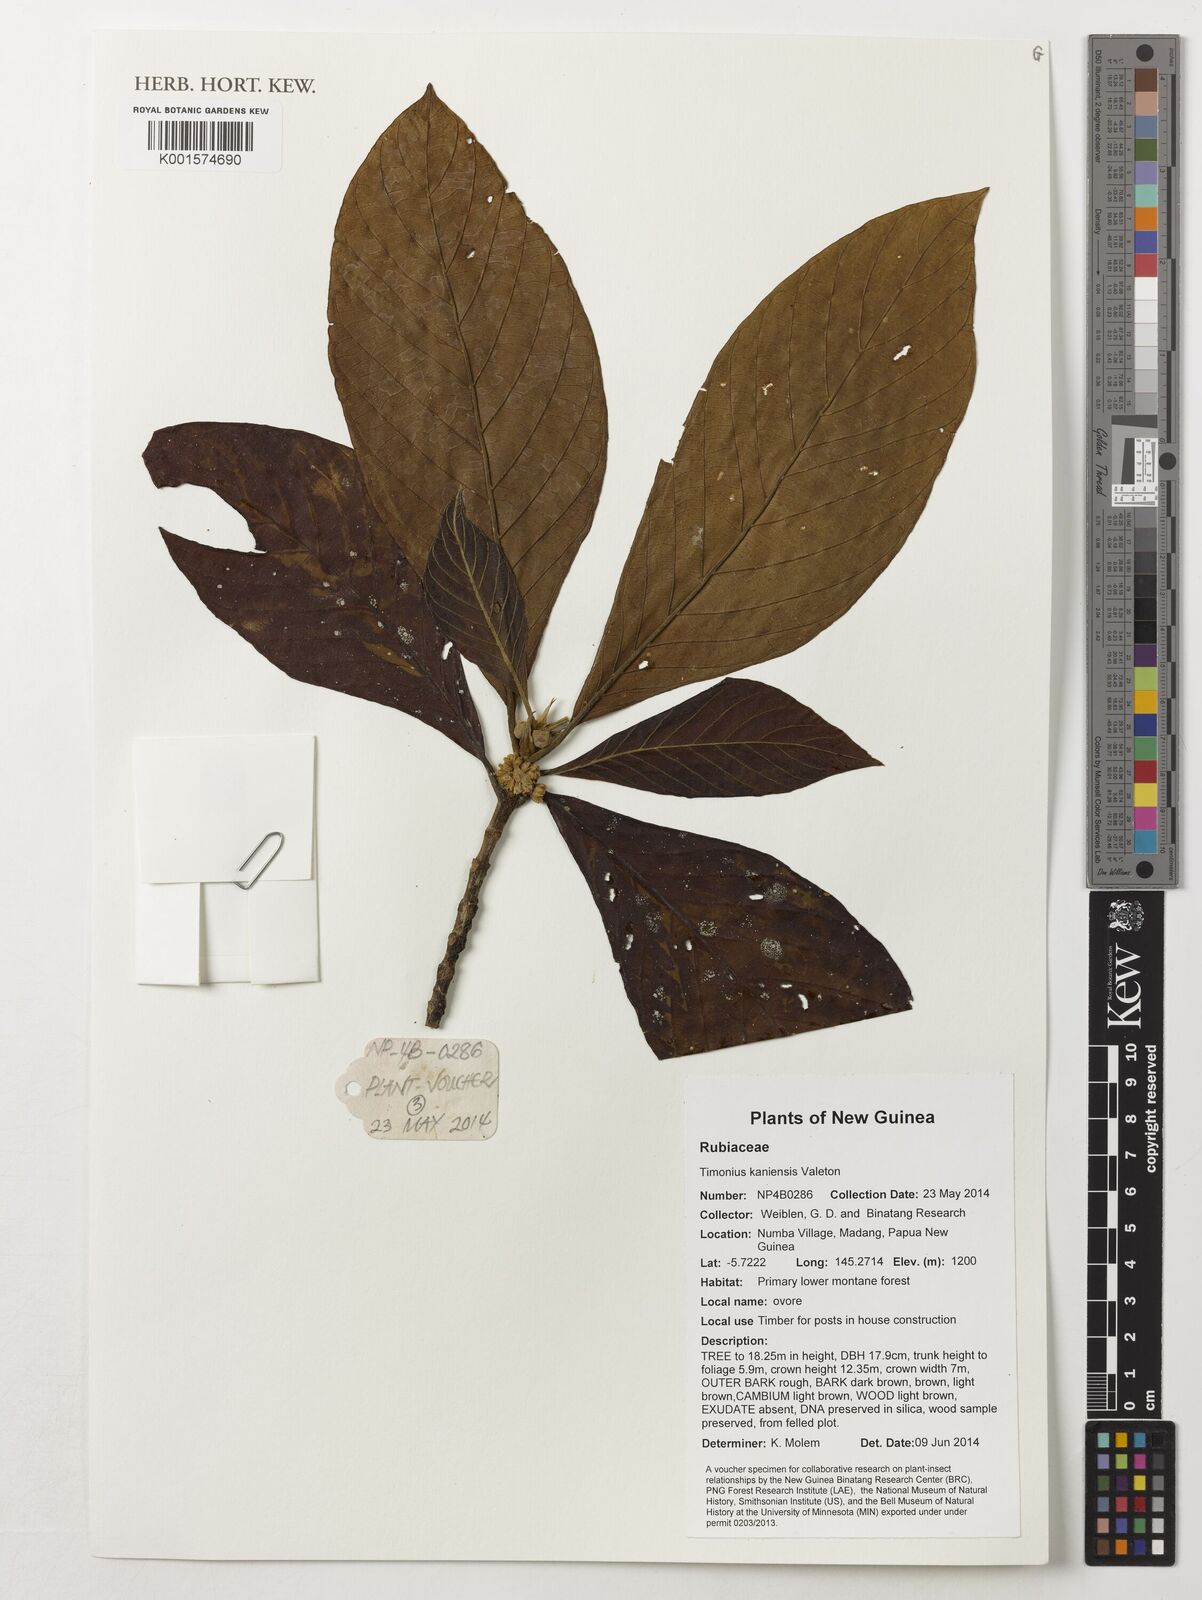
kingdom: Plantae
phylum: Tracheophyta
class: Magnoliopsida
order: Gentianales
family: Rubiaceae
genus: Timonius
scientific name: Timonius kaniensis
